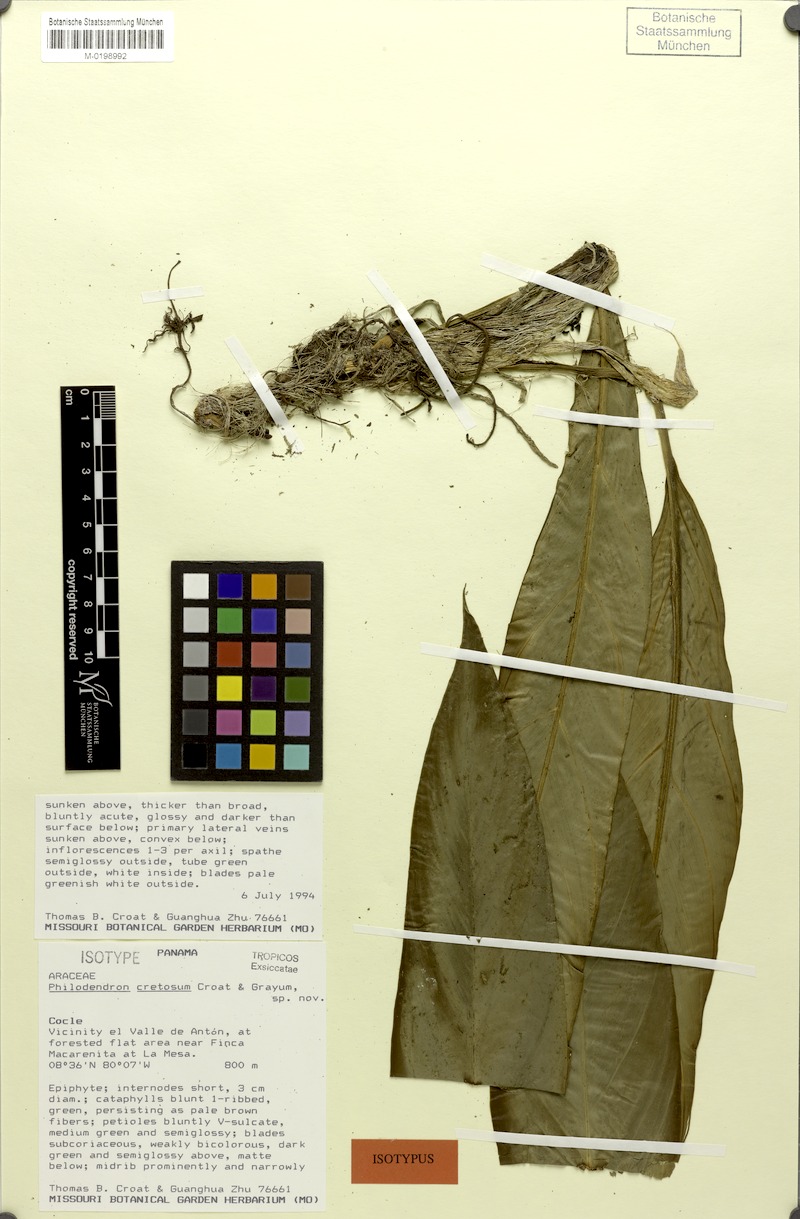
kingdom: Plantae
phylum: Tracheophyta
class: Liliopsida
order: Alismatales
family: Araceae
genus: Philodendron
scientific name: Philodendron cretosum
